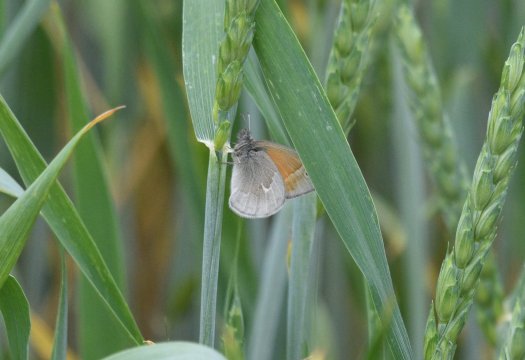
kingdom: Animalia
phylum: Arthropoda
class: Insecta
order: Lepidoptera
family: Nymphalidae
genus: Coenonympha
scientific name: Coenonympha tullia
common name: Large Heath
